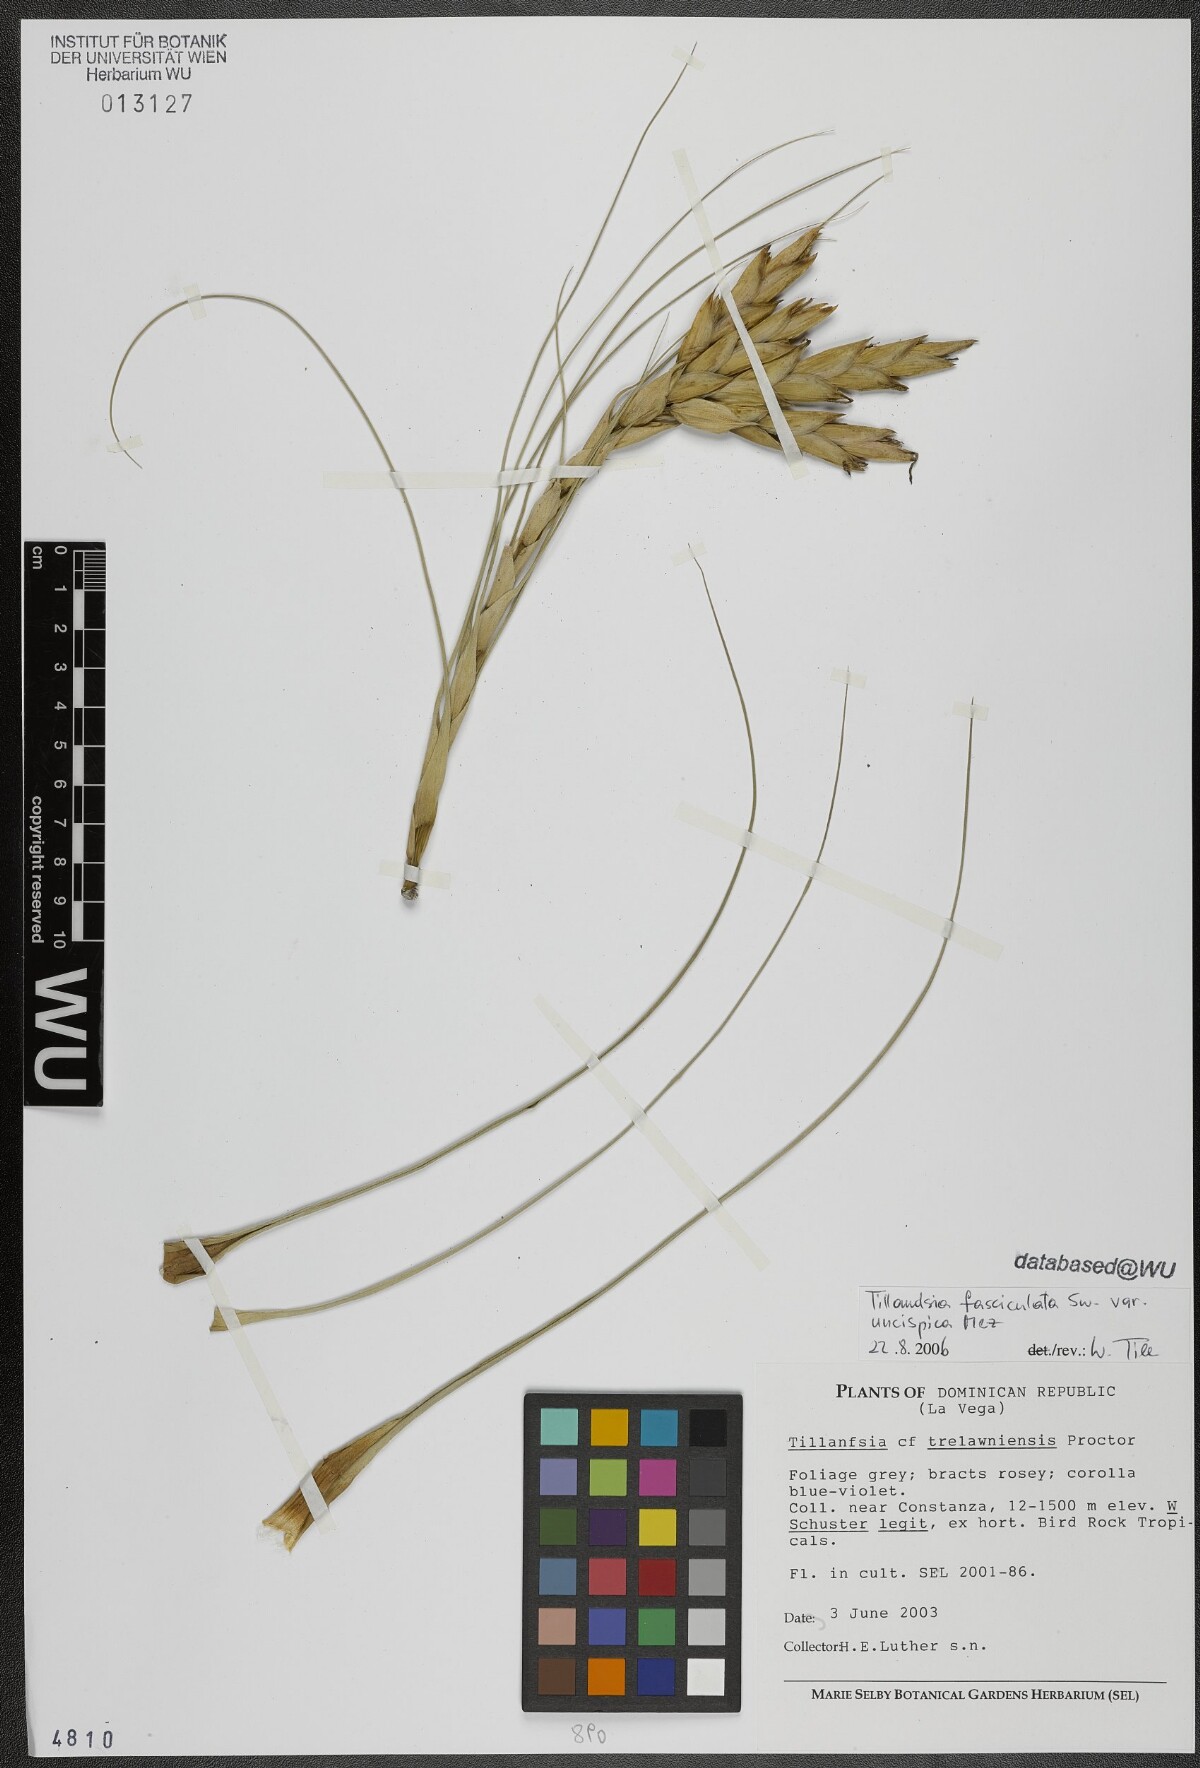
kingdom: Plantae
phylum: Tracheophyta
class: Liliopsida
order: Poales
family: Bromeliaceae
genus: Tillandsia
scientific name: Tillandsia fasciculata
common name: Giant airplant
